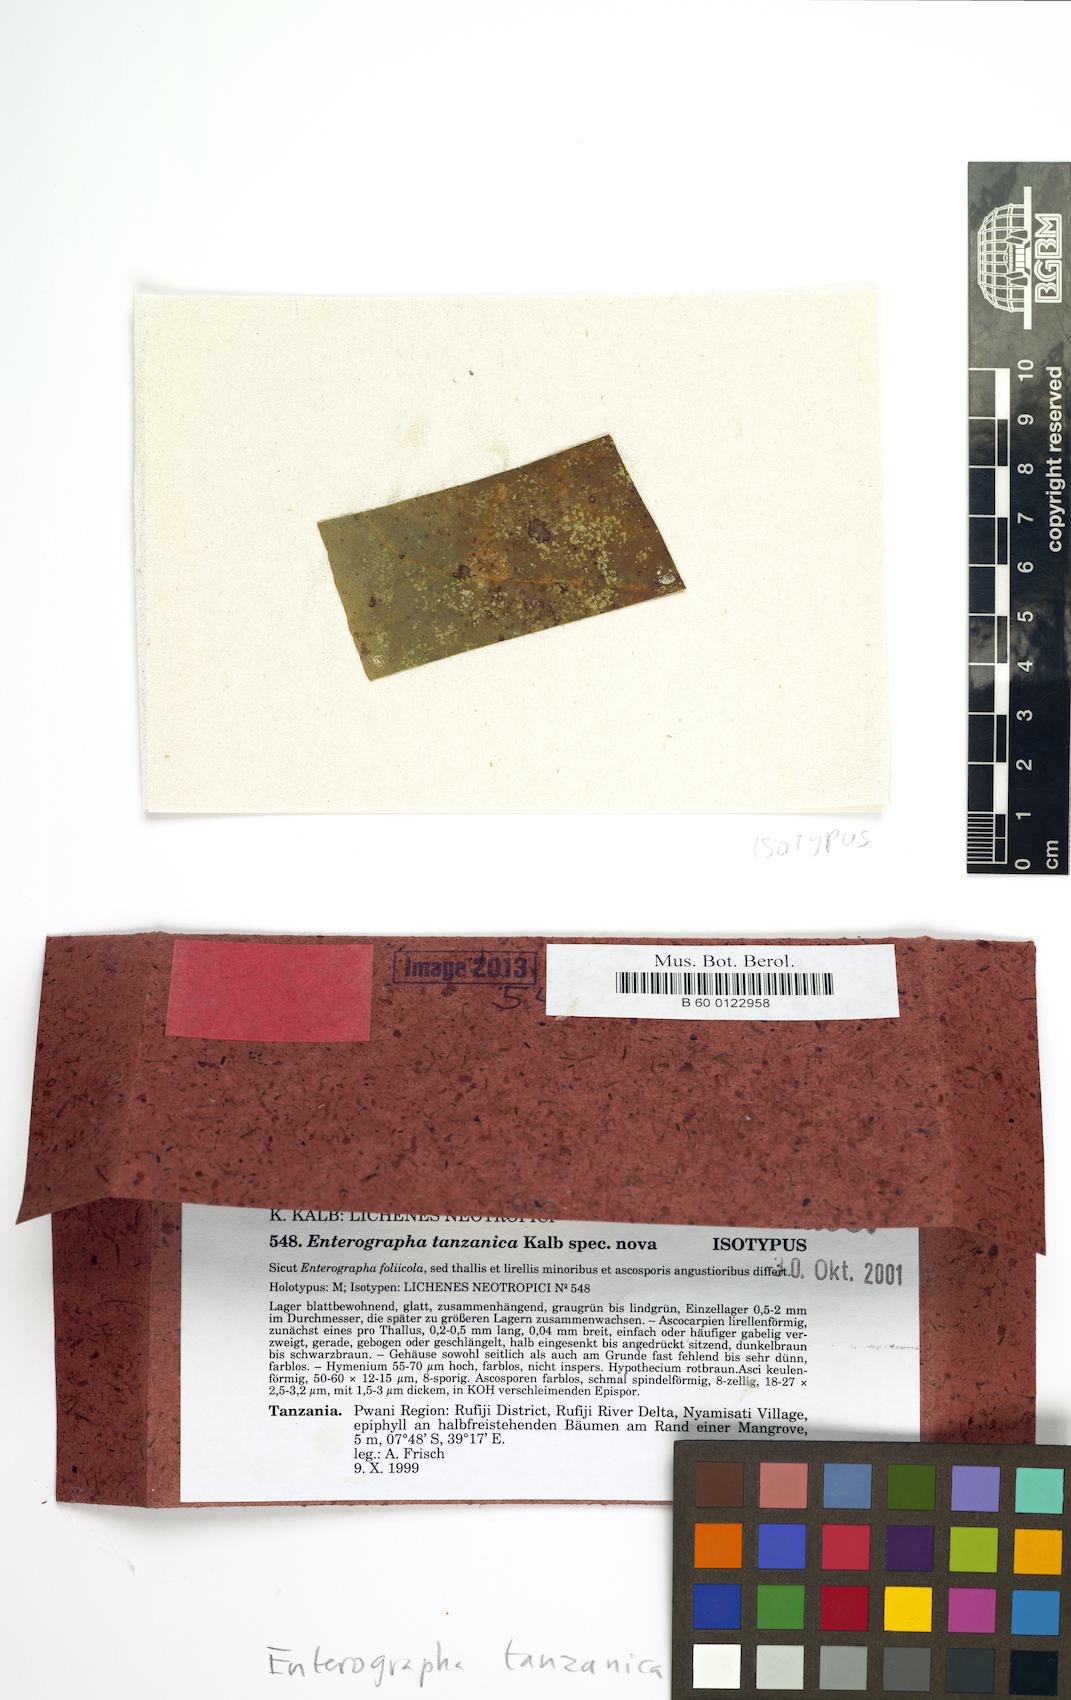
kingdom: Fungi
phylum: Ascomycota
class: Arthoniomycetes
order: Arthoniales
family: Roccellaceae
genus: Enterographa
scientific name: Enterographa tanzanica
